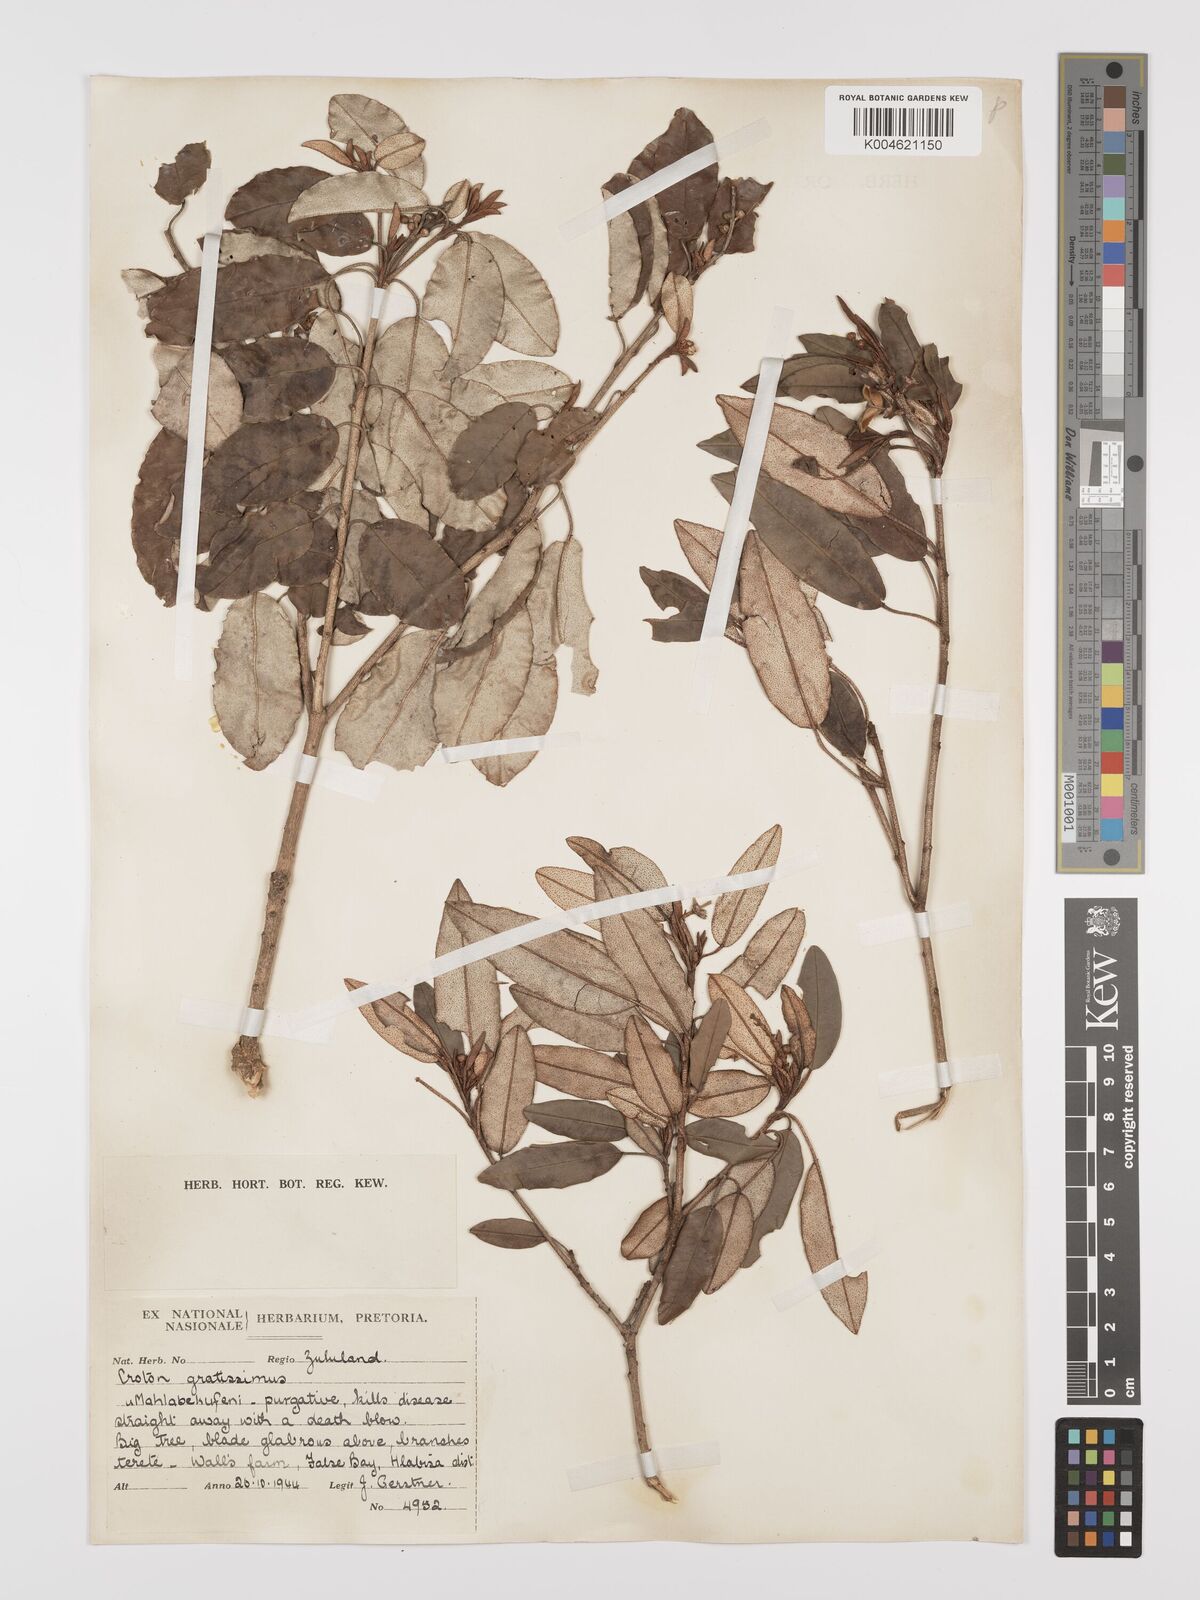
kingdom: Plantae
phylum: Tracheophyta
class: Magnoliopsida
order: Malpighiales
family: Euphorbiaceae
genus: Croton
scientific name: Croton gratissimus
